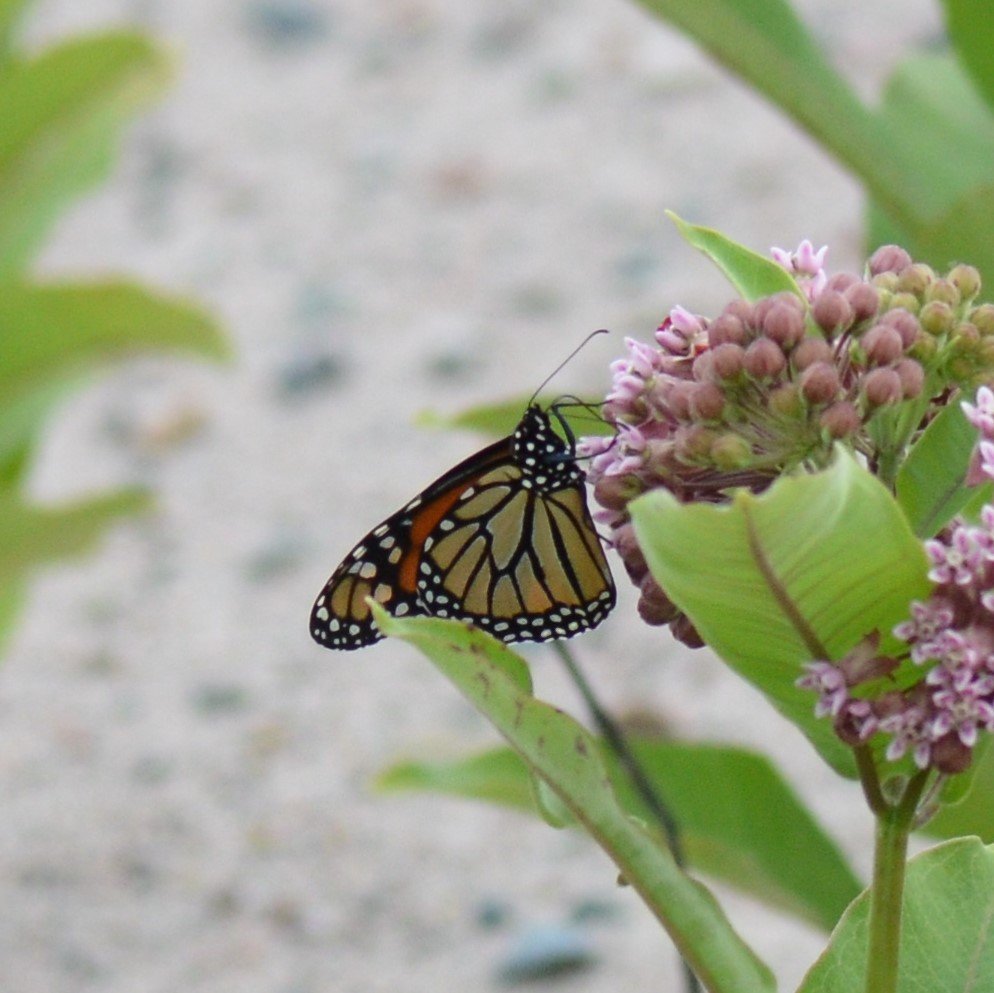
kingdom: Animalia
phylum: Arthropoda
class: Insecta
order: Lepidoptera
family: Nymphalidae
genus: Danaus
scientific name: Danaus plexippus
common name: Monarch
